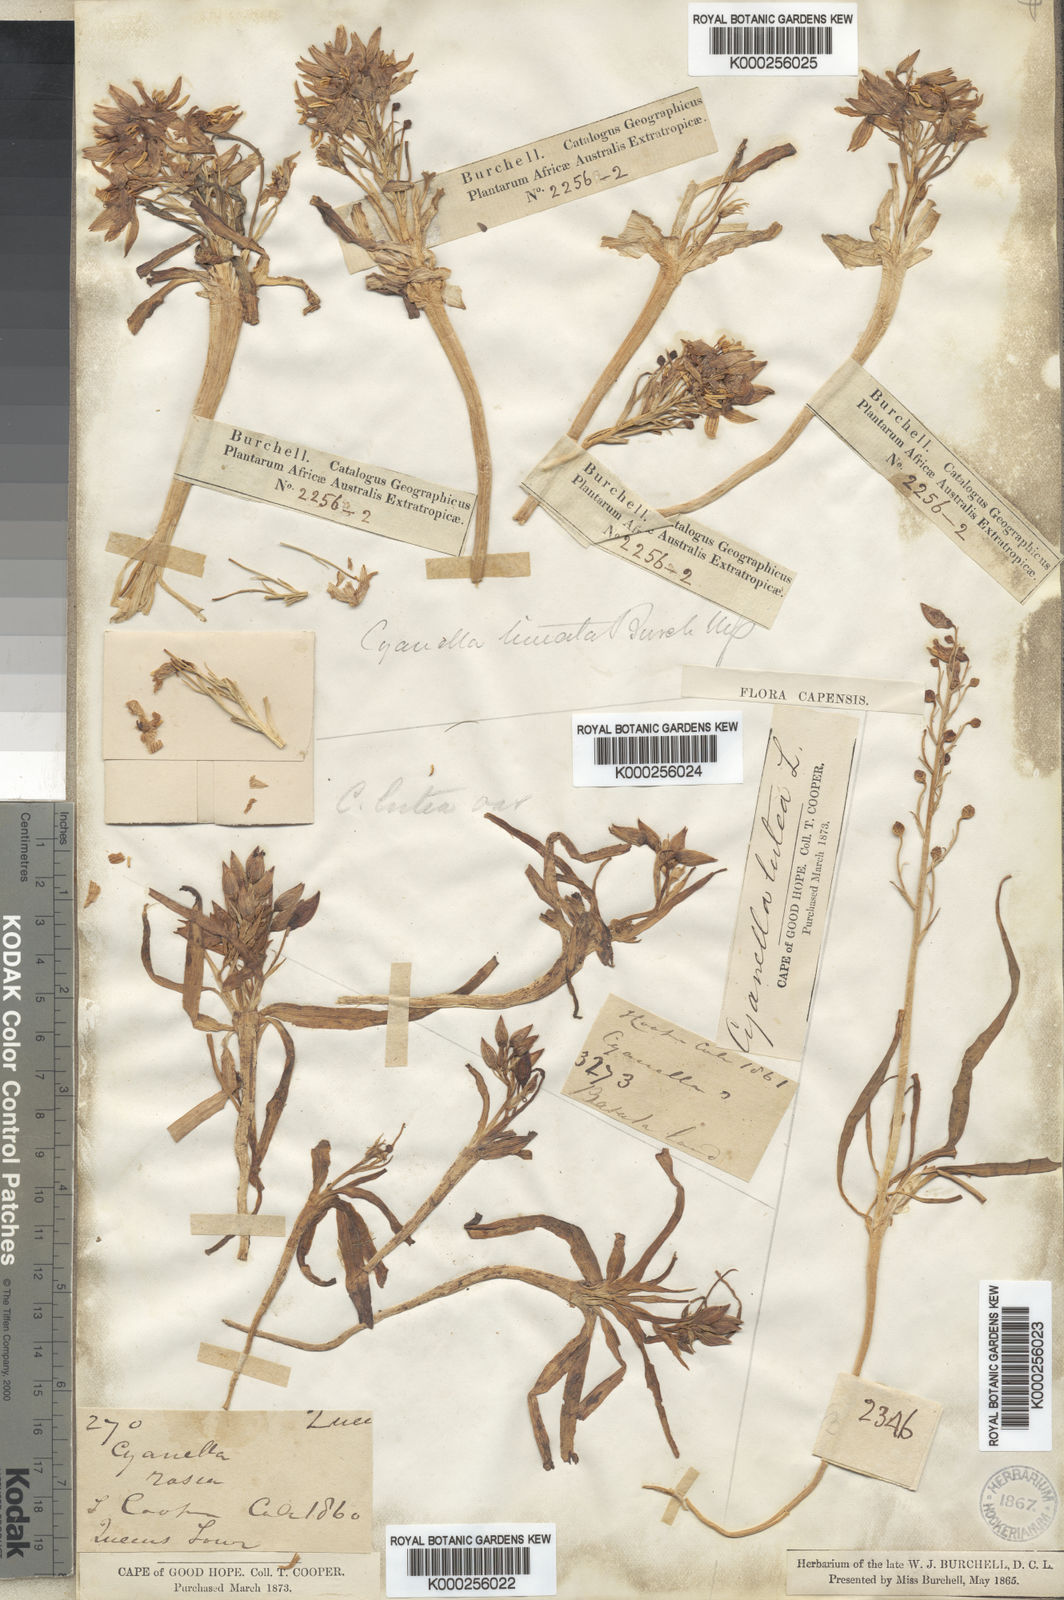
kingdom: Plantae
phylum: Tracheophyta
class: Liliopsida
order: Asparagales
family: Tecophilaeaceae
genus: Cyanella
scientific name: Cyanella
